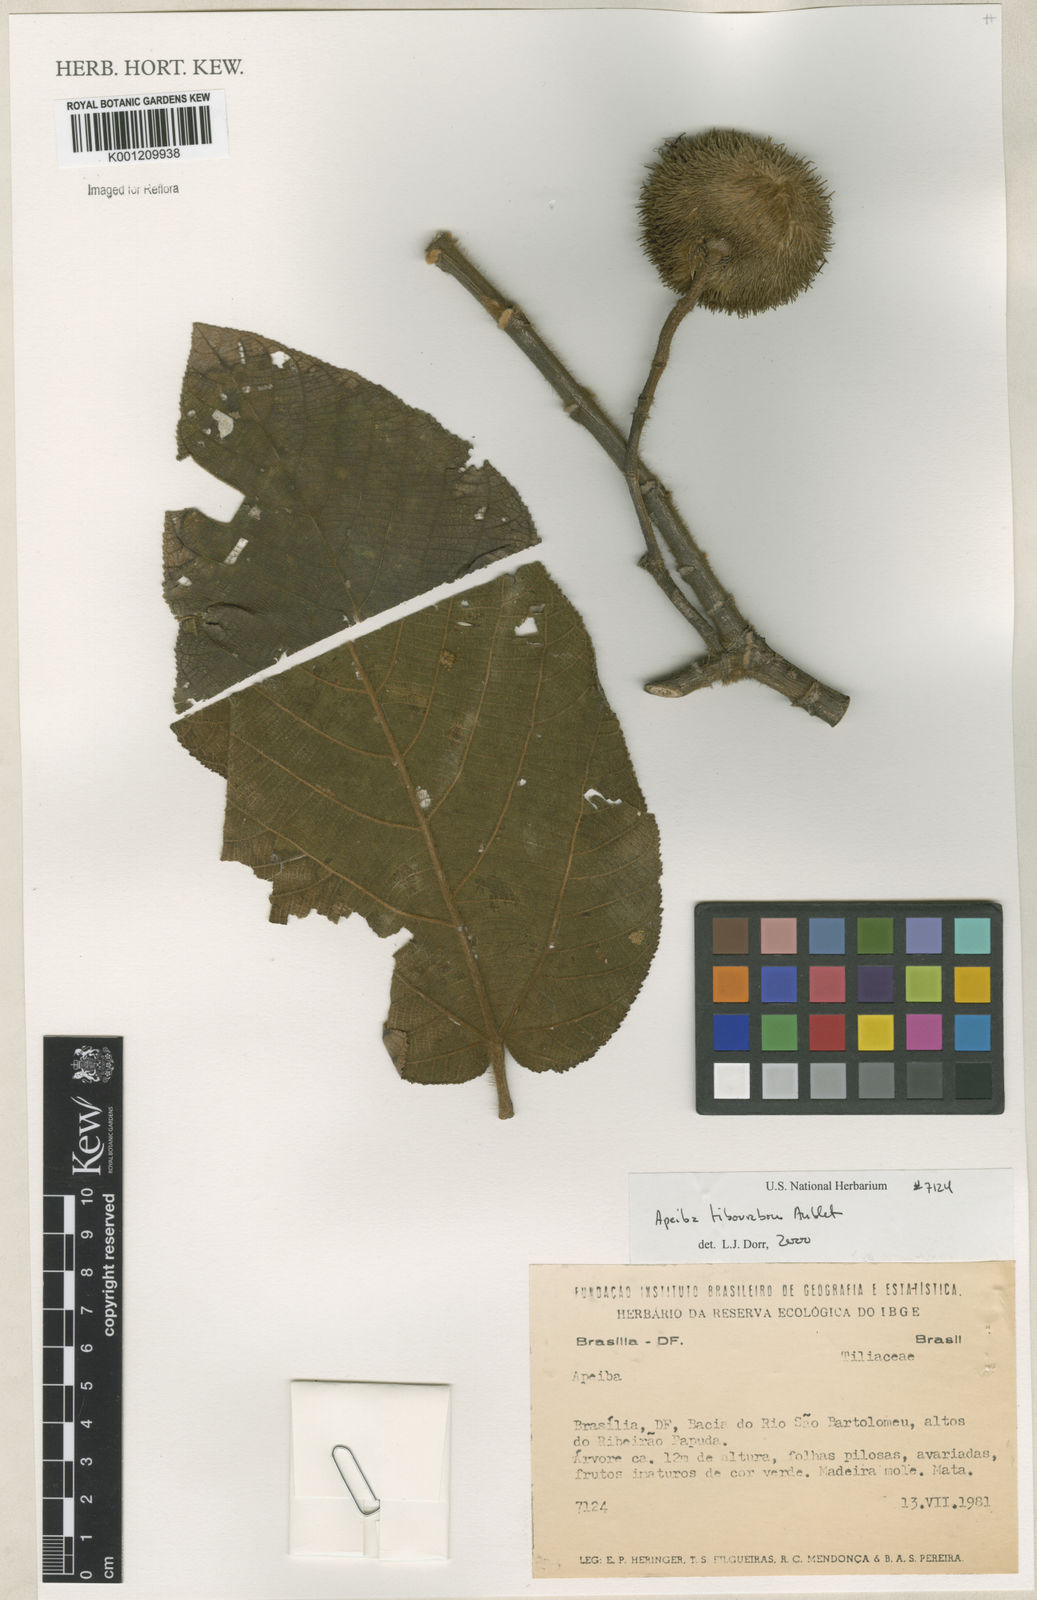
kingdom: Plantae
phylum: Tracheophyta
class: Magnoliopsida
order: Malvales
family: Malvaceae
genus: Apeiba
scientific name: Apeiba tibourbou
